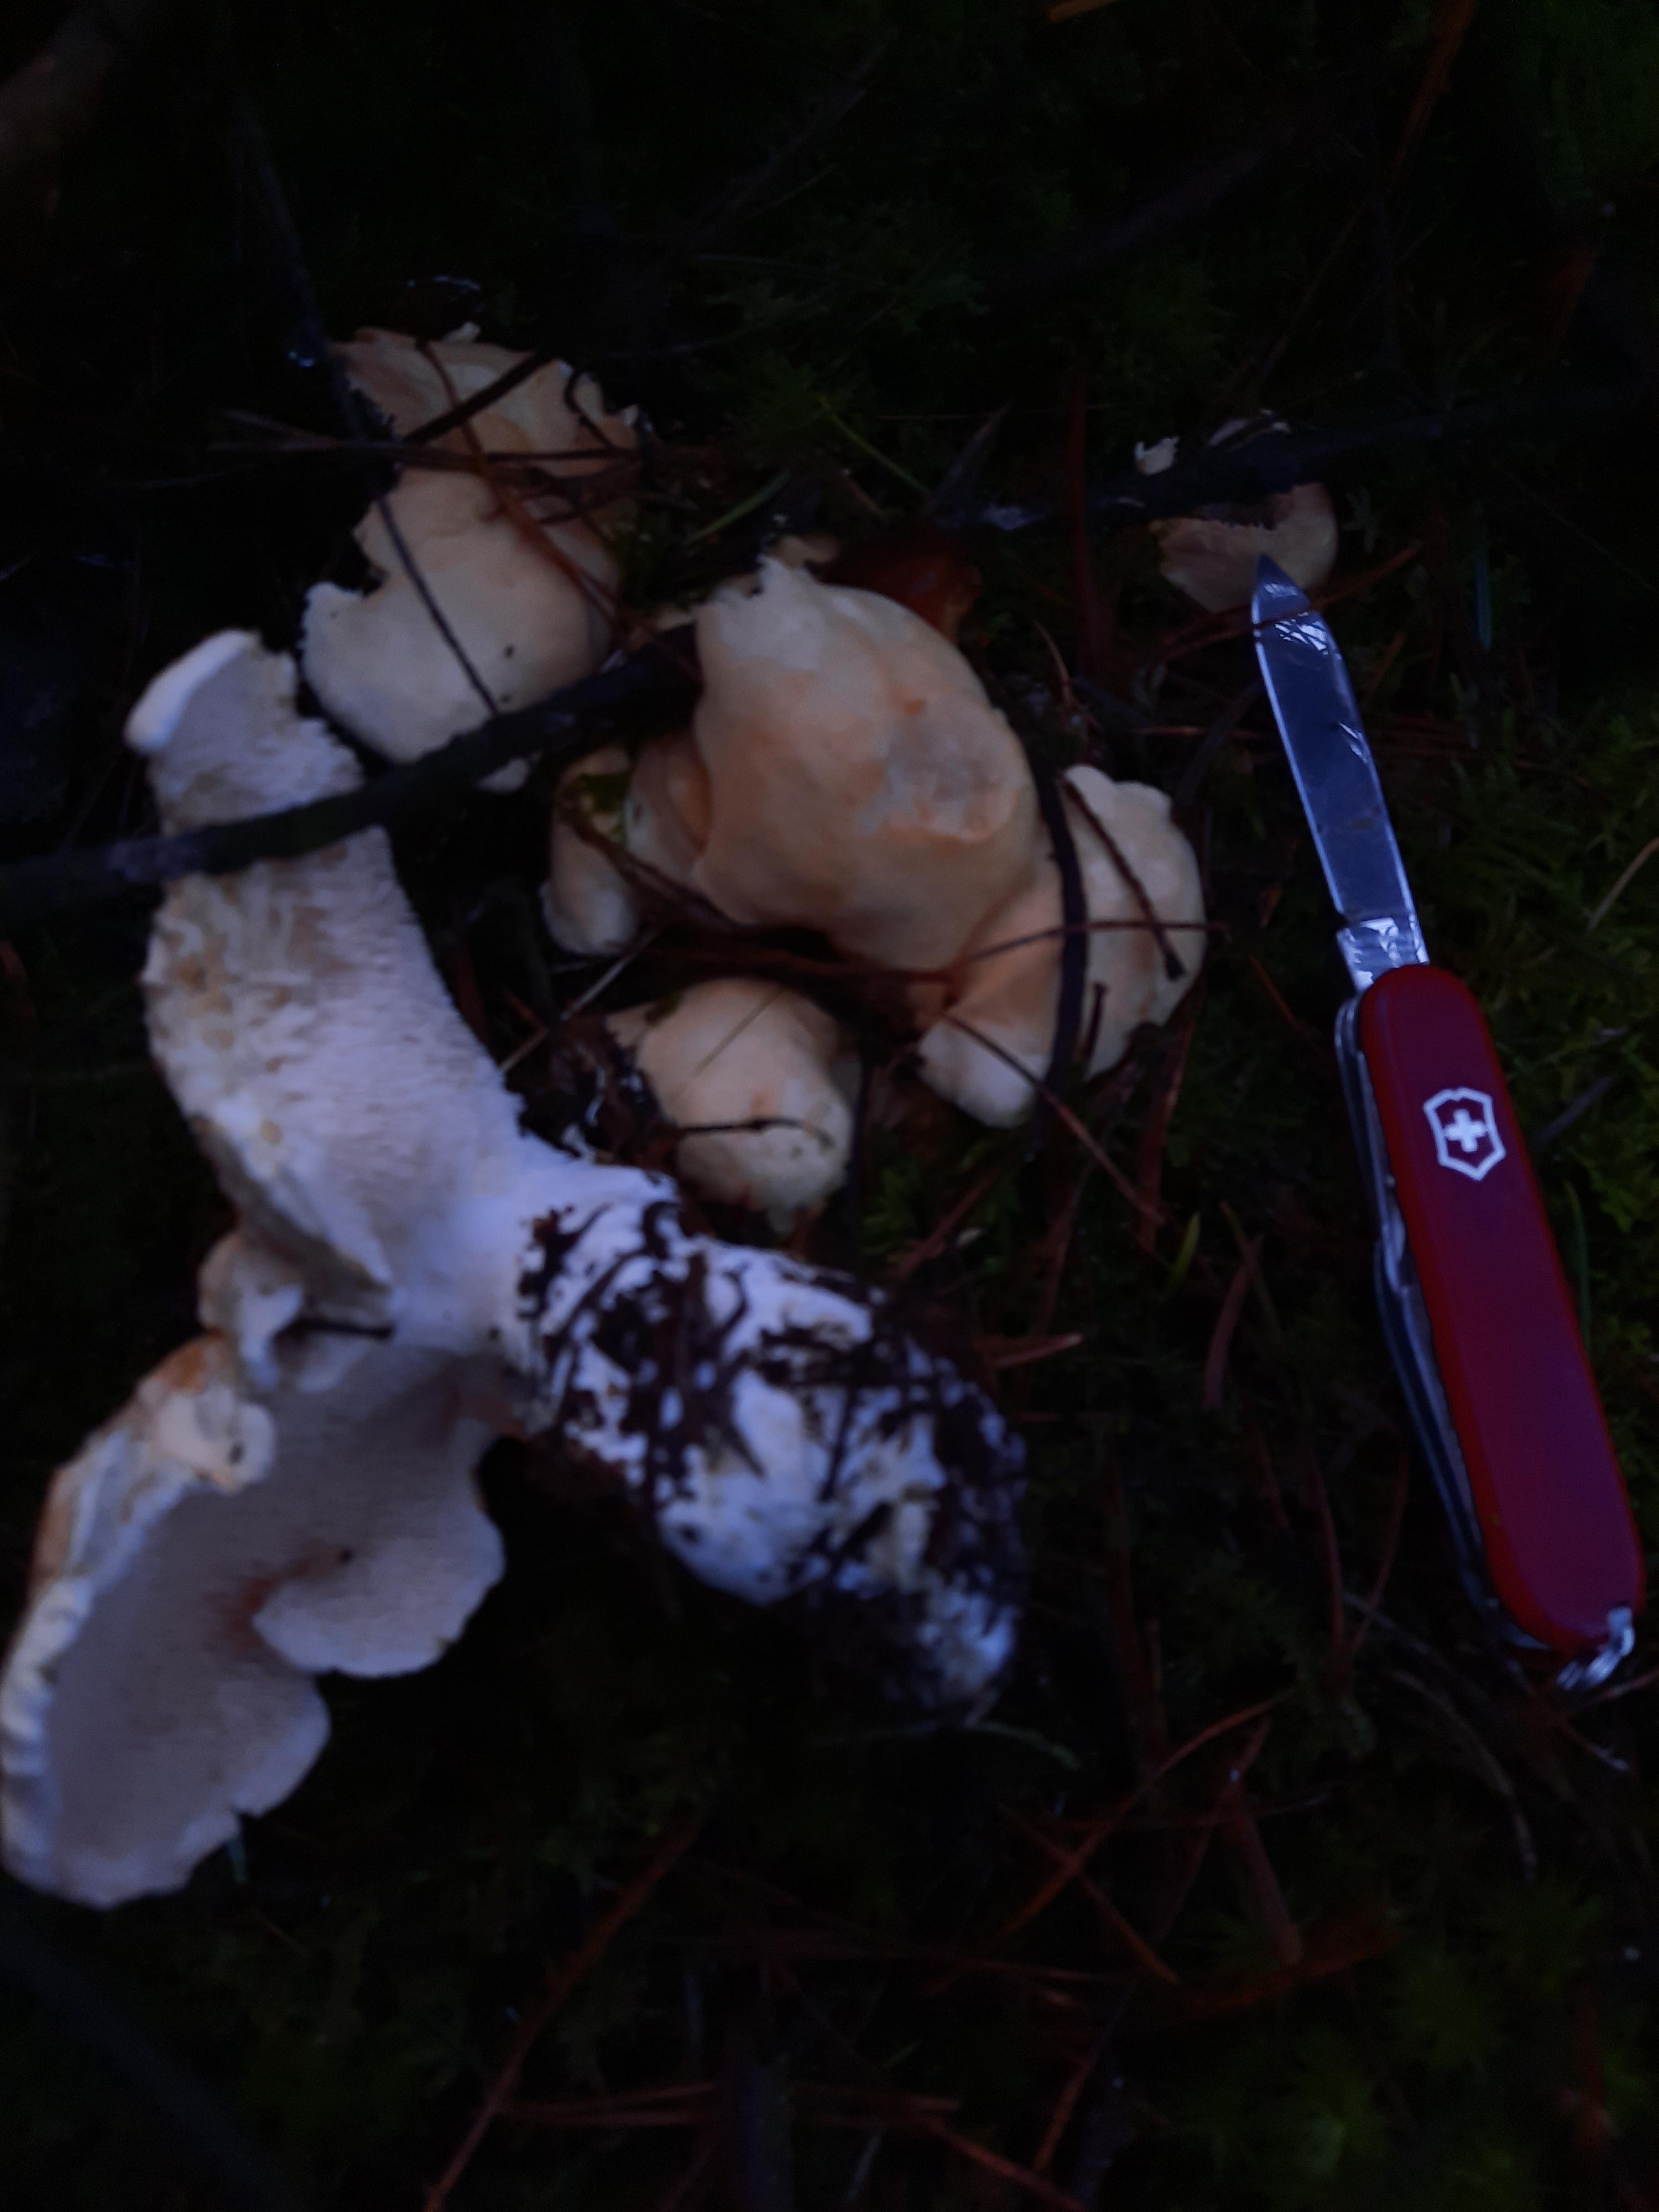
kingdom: Fungi
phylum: Basidiomycota
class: Agaricomycetes
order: Cantharellales
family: Hydnaceae
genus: Hydnum
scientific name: Hydnum repandum
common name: almindelig pigsvamp
